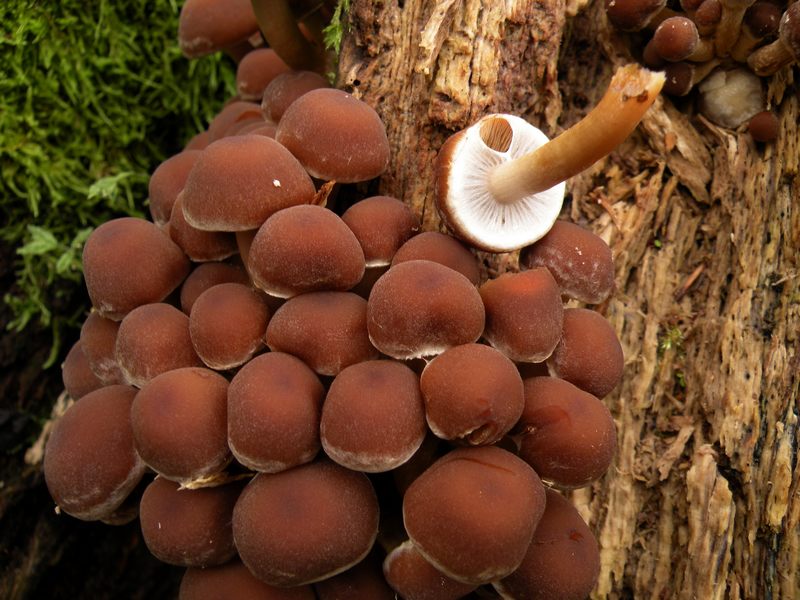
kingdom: Fungi
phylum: Basidiomycota
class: Agaricomycetes
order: Agaricales
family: Psathyrellaceae
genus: Psathyrella
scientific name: Psathyrella piluliformis
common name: lysstokket mørkhat
